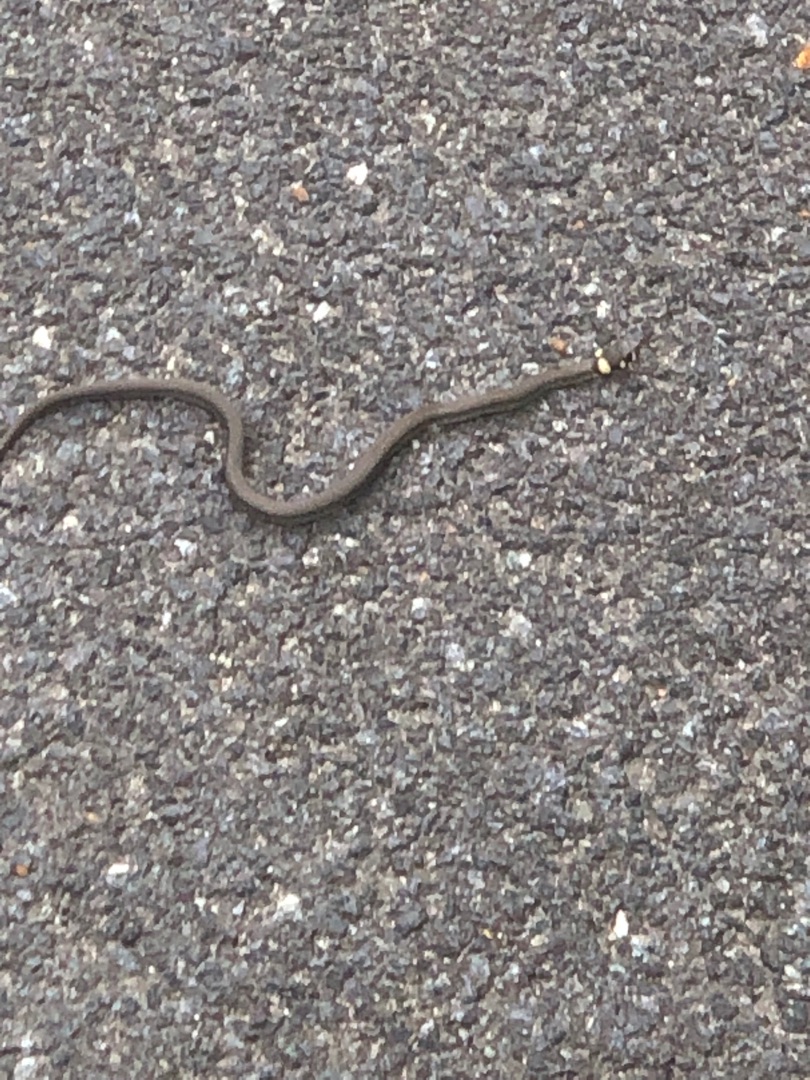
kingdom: Animalia
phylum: Chordata
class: Squamata
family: Colubridae
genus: Natrix
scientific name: Natrix natrix
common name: Snog
